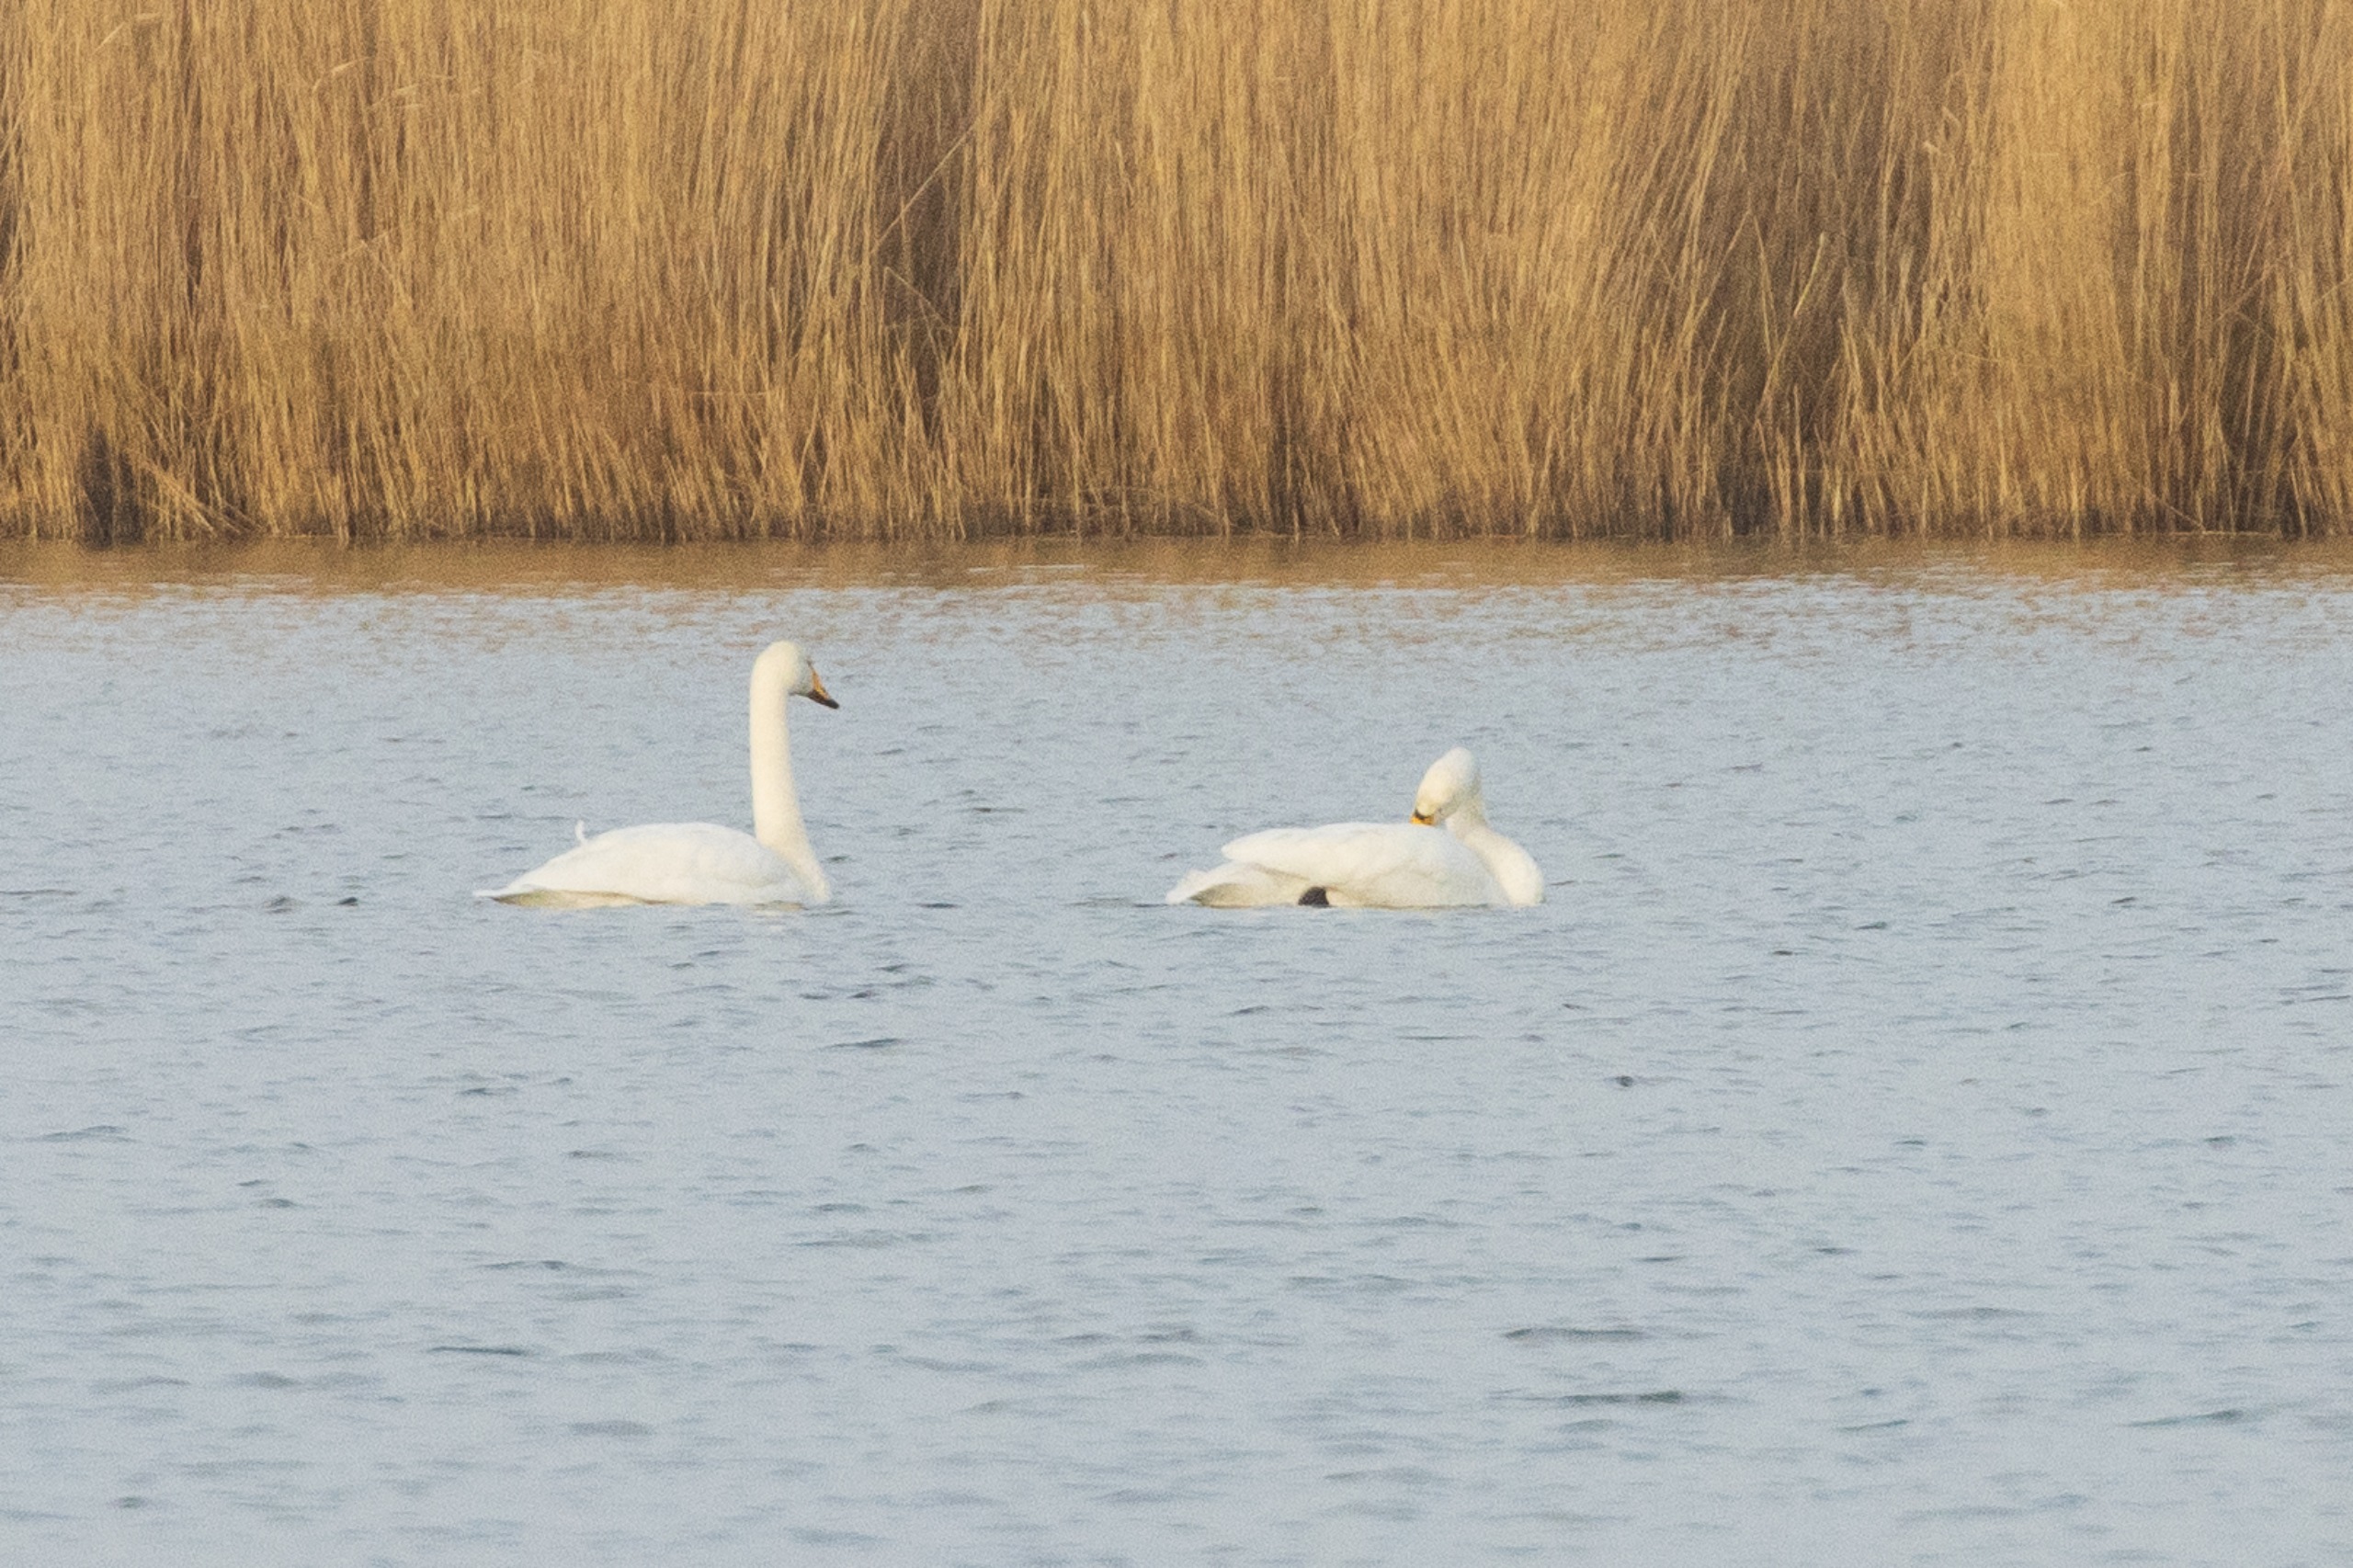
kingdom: Animalia
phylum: Chordata
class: Aves
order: Anseriformes
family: Anatidae
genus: Cygnus
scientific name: Cygnus cygnus
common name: Sangsvane
